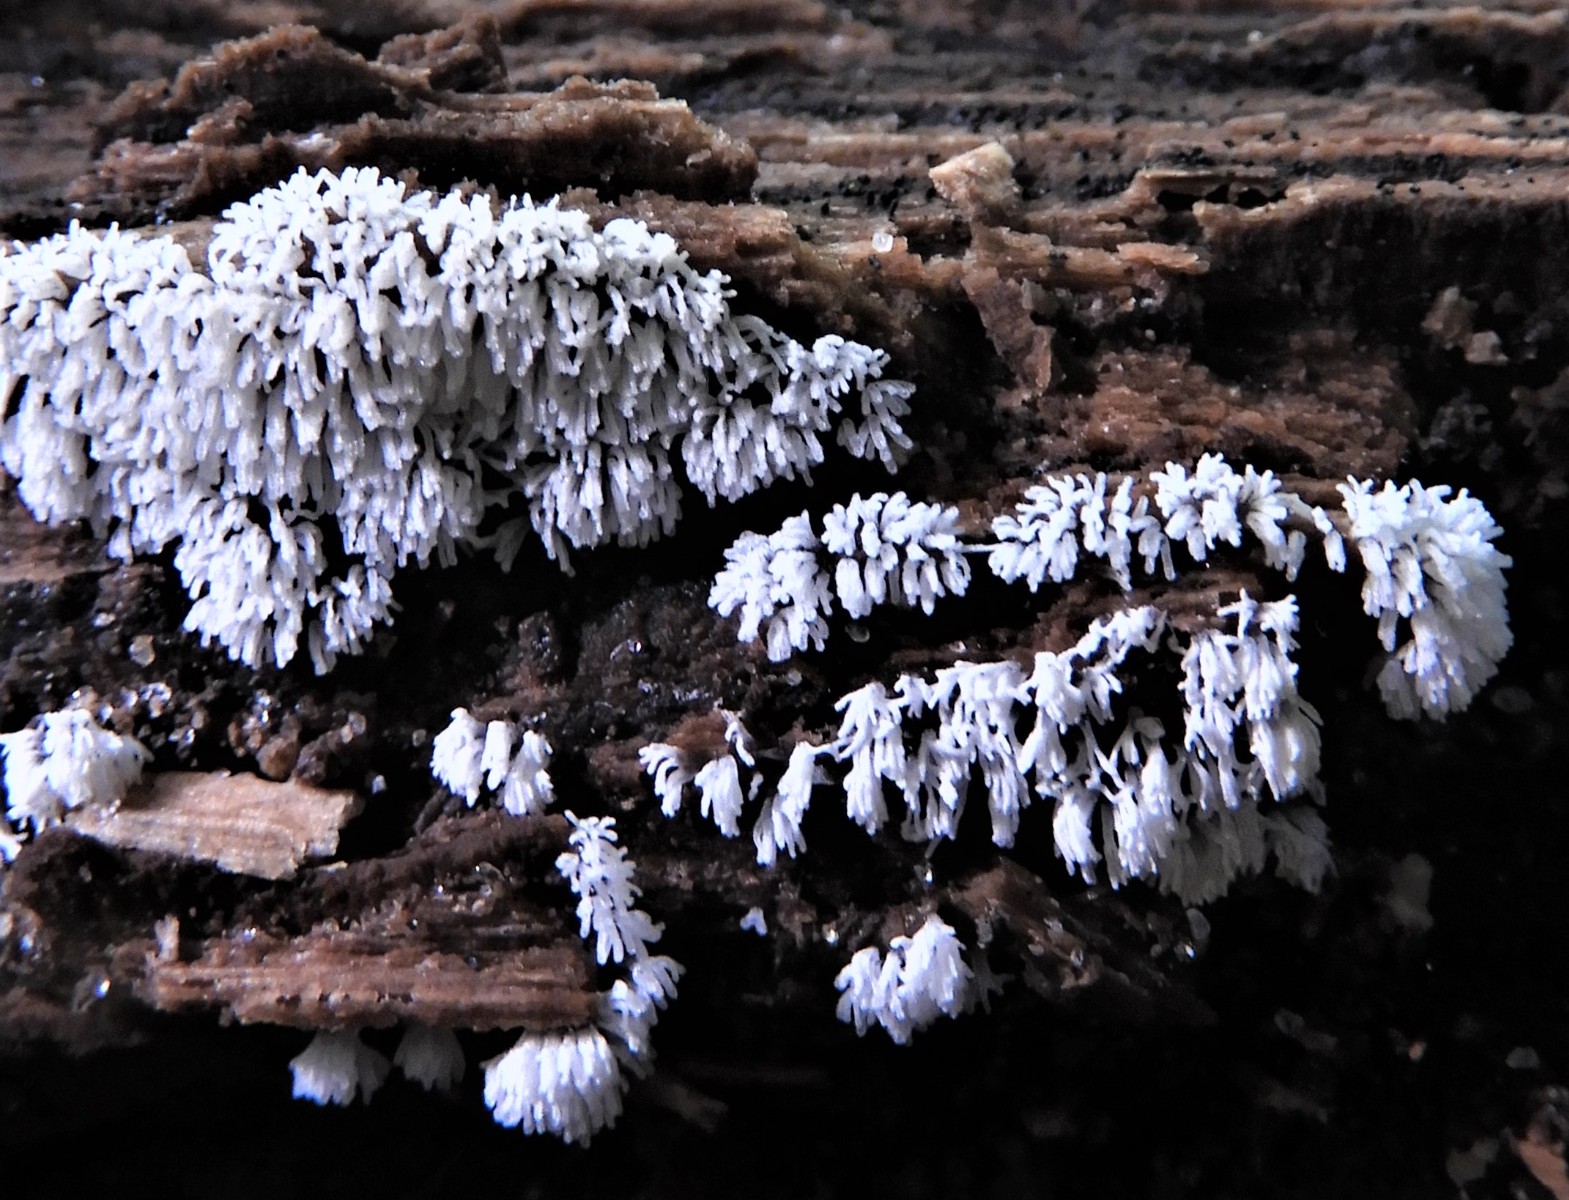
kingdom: Protozoa
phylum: Mycetozoa
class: Protosteliomycetes
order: Ceratiomyxales
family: Ceratiomyxaceae
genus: Ceratiomyxa
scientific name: Ceratiomyxa fruticulosa
